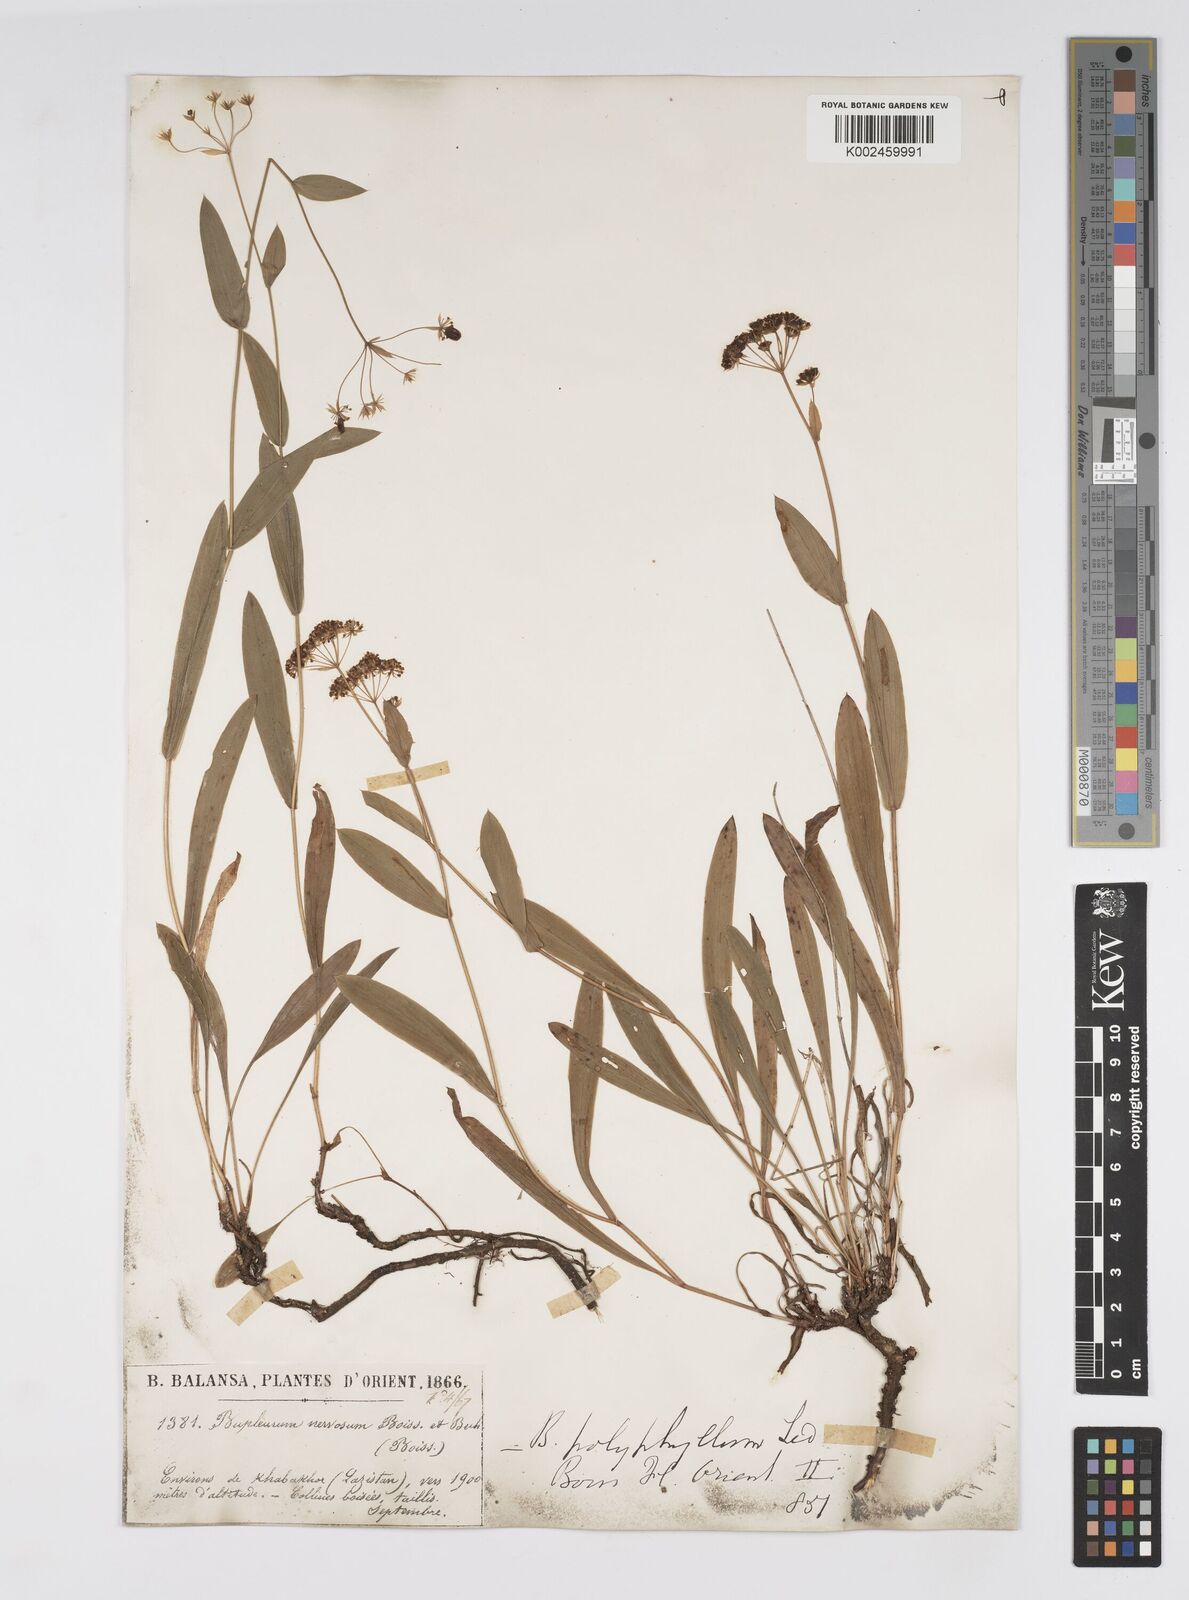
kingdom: Plantae
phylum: Tracheophyta
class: Magnoliopsida
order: Apiales
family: Apiaceae
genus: Bupleurum
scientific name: Bupleurum falcatum
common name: Sickle-leaved hare's-ear
